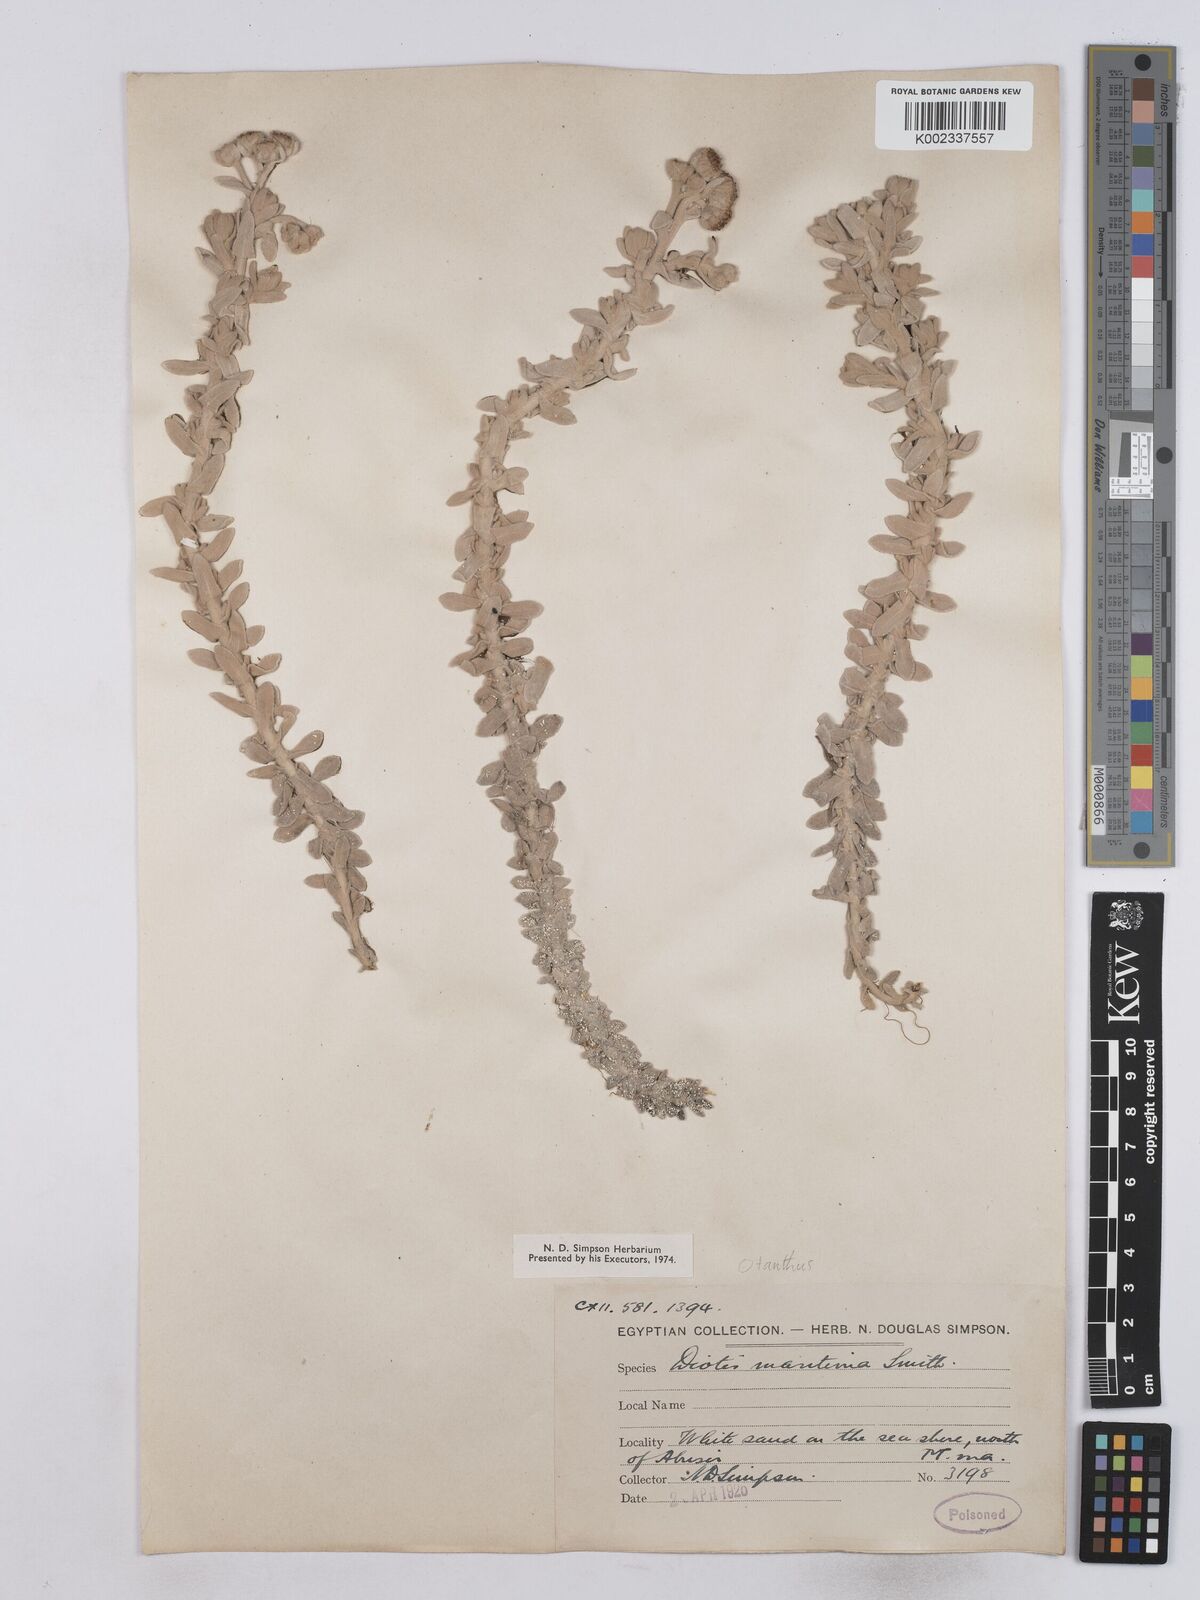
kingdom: Plantae
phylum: Tracheophyta
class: Magnoliopsida
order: Asterales
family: Asteraceae
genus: Achillea
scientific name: Achillea maritima
